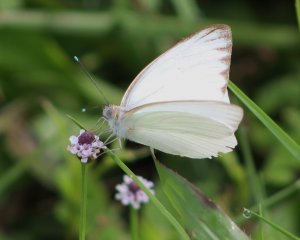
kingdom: Animalia
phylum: Arthropoda
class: Insecta
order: Lepidoptera
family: Pieridae
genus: Ascia
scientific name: Ascia monuste
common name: Great Southern White
